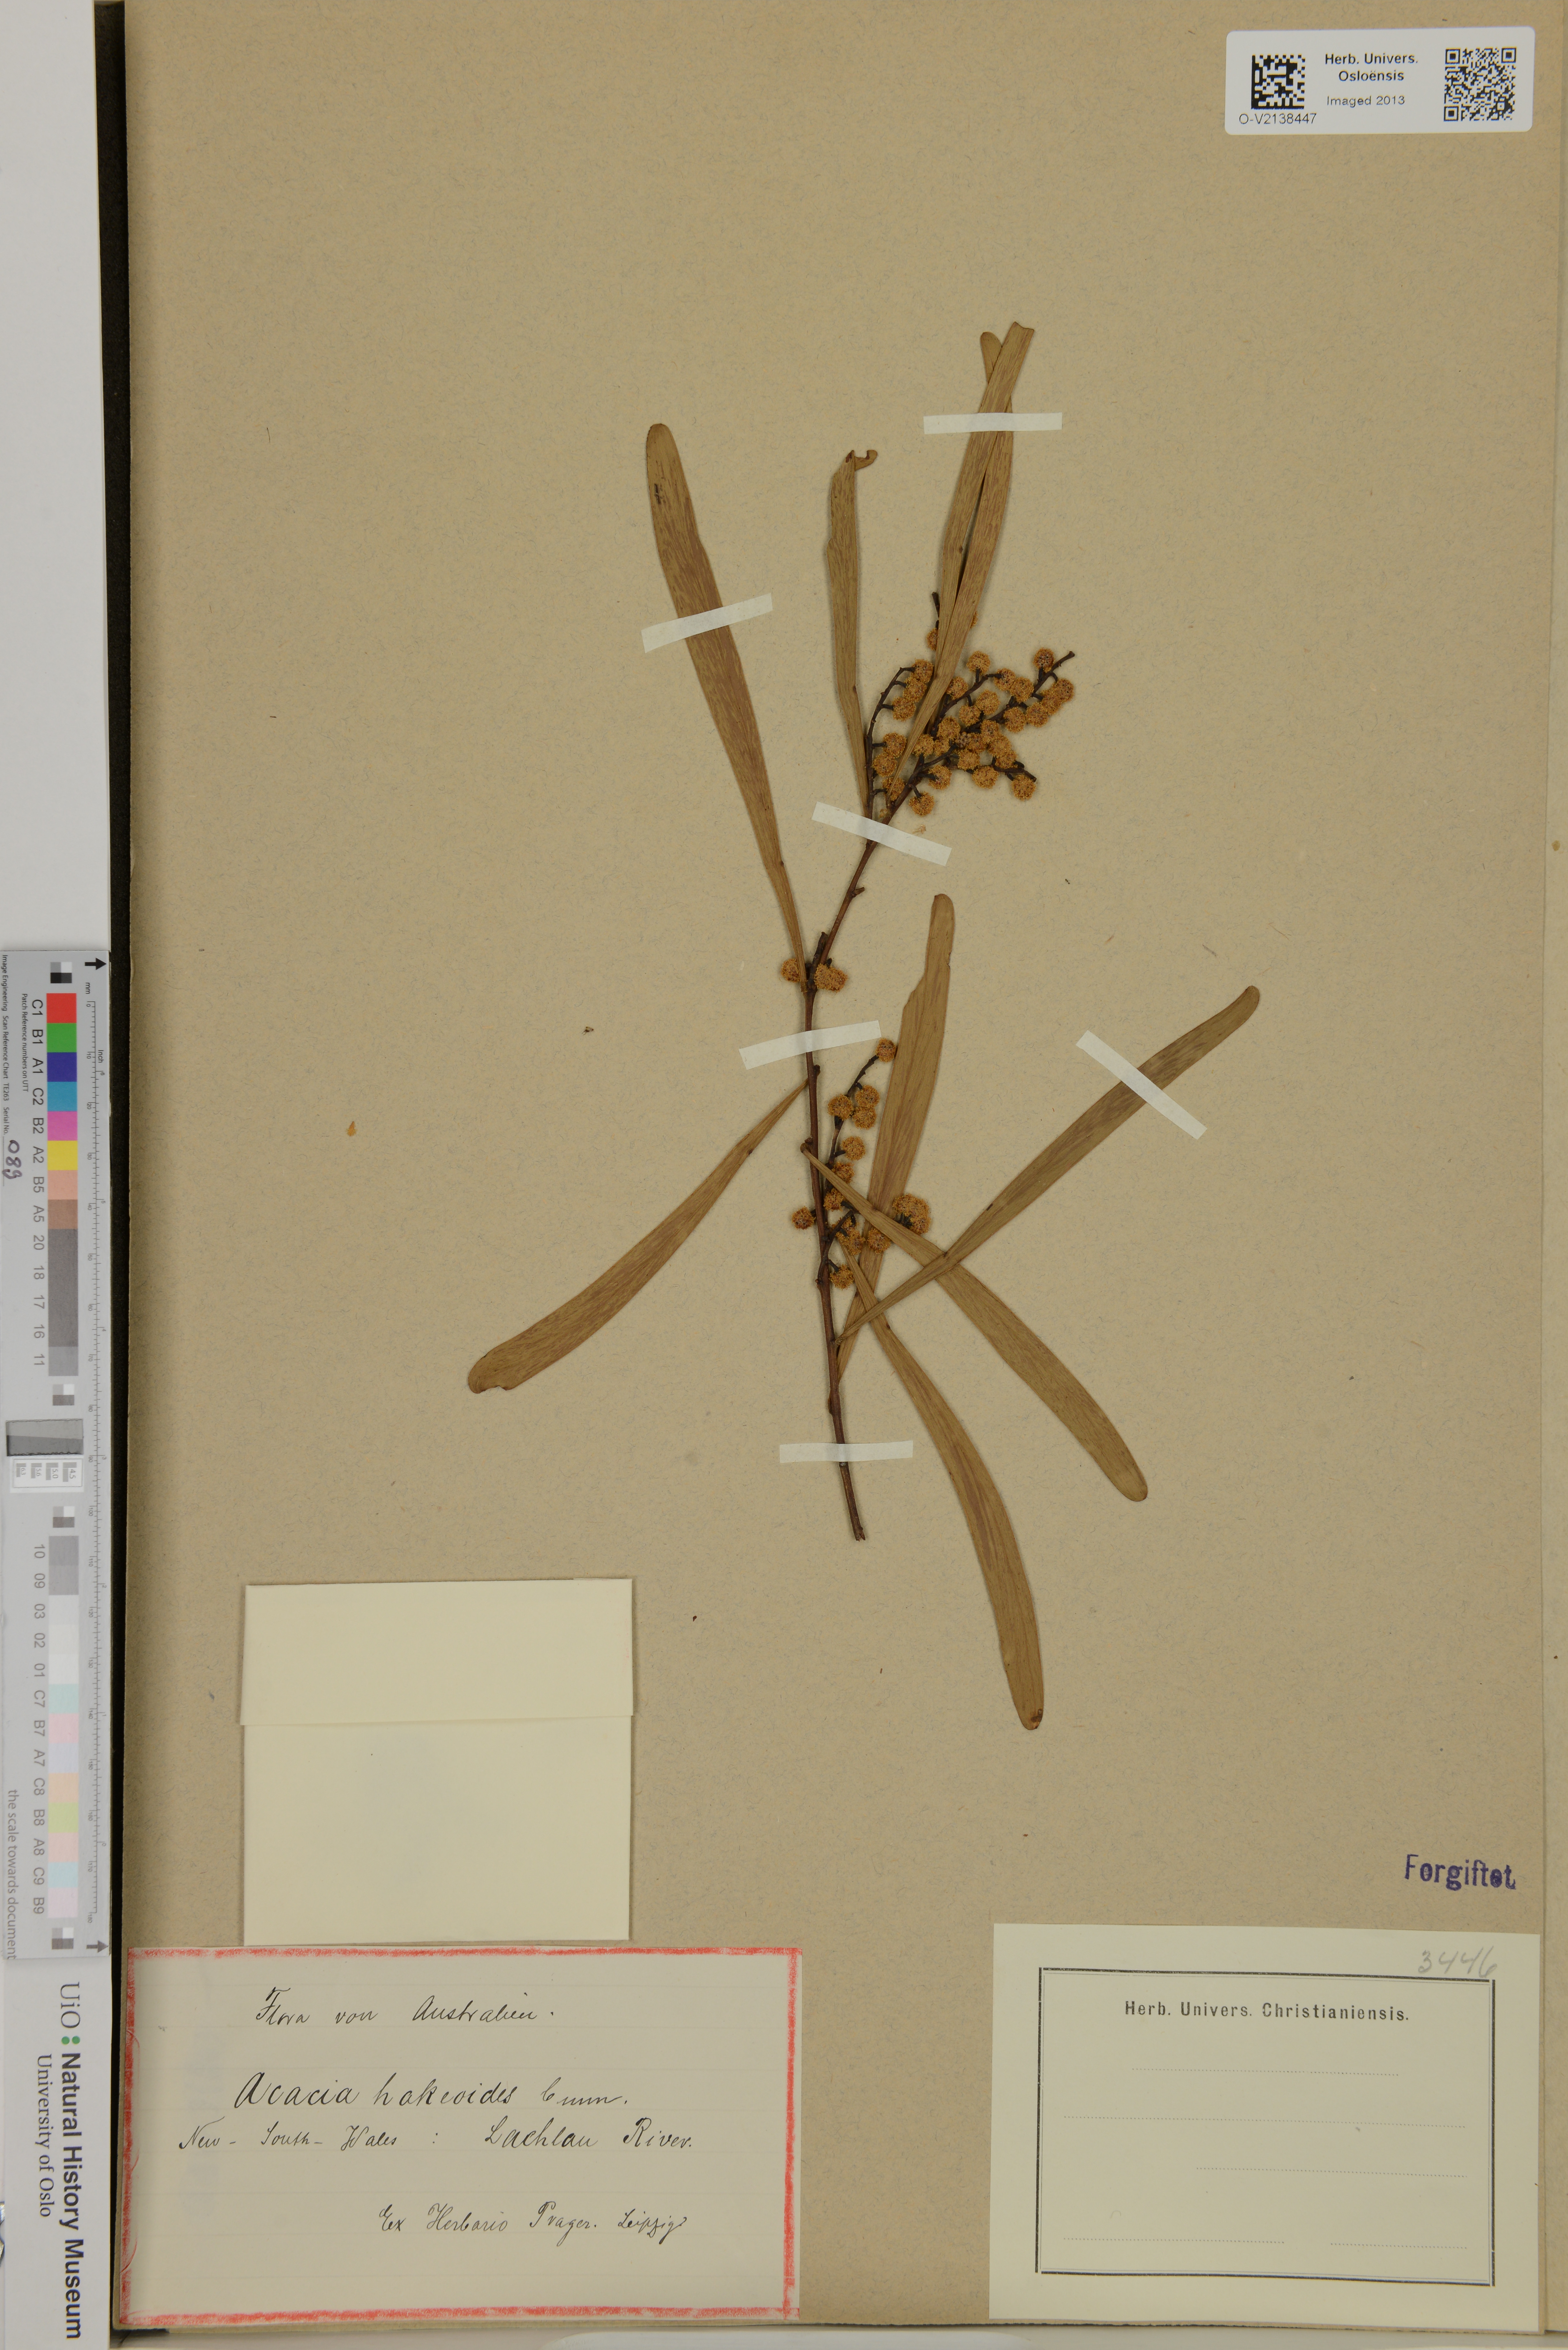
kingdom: Plantae
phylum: Tracheophyta
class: Magnoliopsida
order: Fabales
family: Fabaceae
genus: Acacia
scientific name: Acacia hakeoides
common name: Hakea wattle
